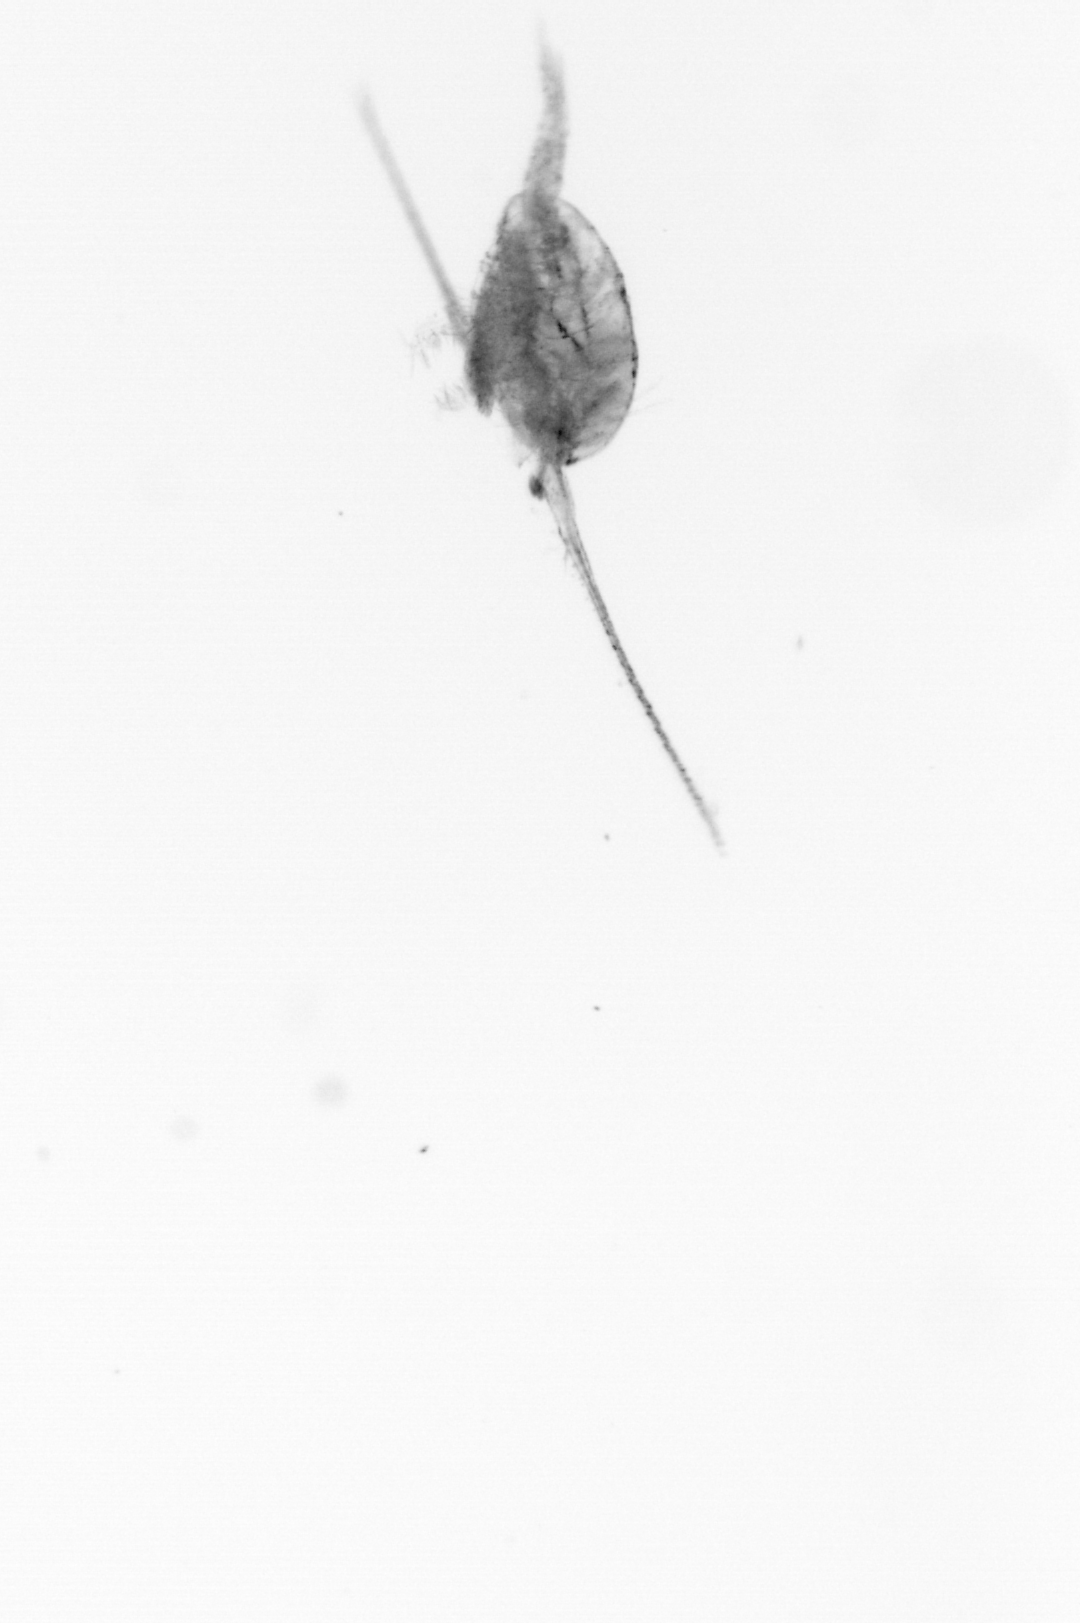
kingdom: Animalia
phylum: Arthropoda
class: Copepoda
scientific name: Copepoda
